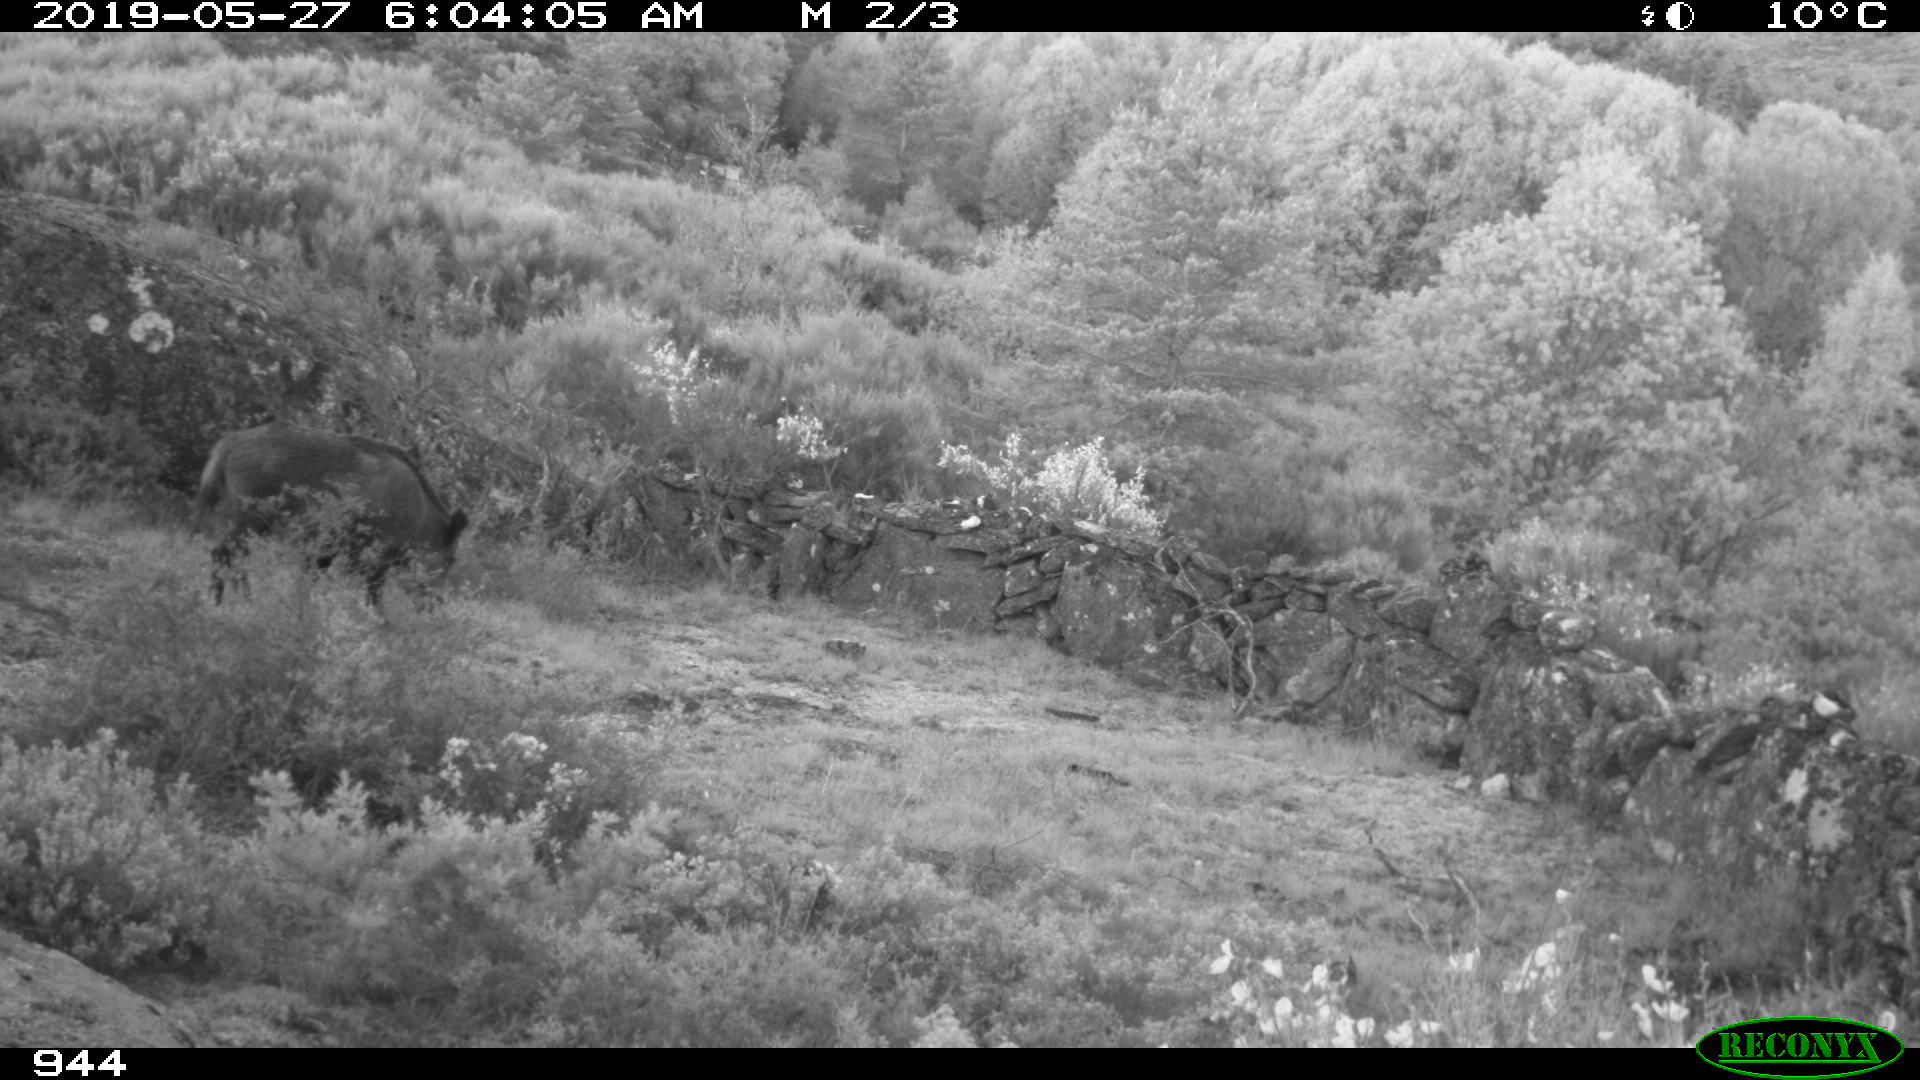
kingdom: Animalia
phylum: Chordata
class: Mammalia
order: Artiodactyla
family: Suidae
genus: Sus
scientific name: Sus scrofa
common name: Wild boar
